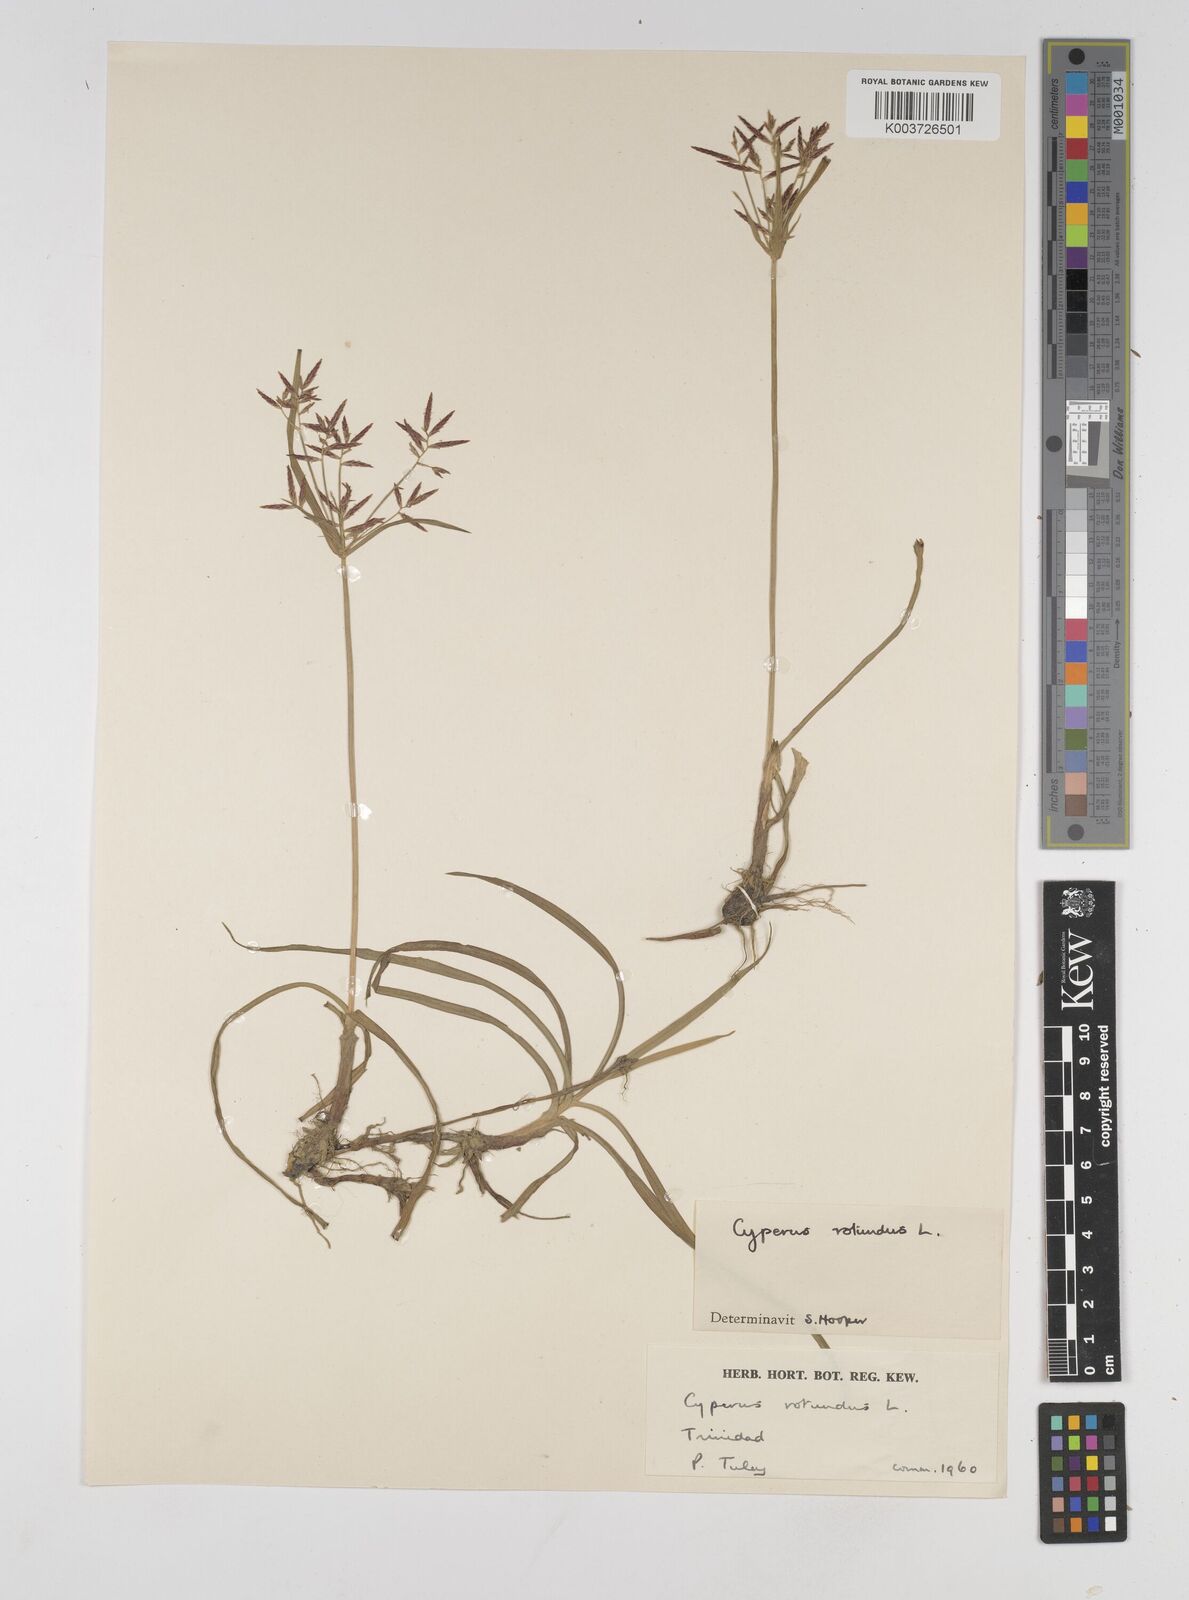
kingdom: Plantae
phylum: Tracheophyta
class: Liliopsida
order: Poales
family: Cyperaceae
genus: Cyperus
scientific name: Cyperus rotundus
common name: Nutgrass
